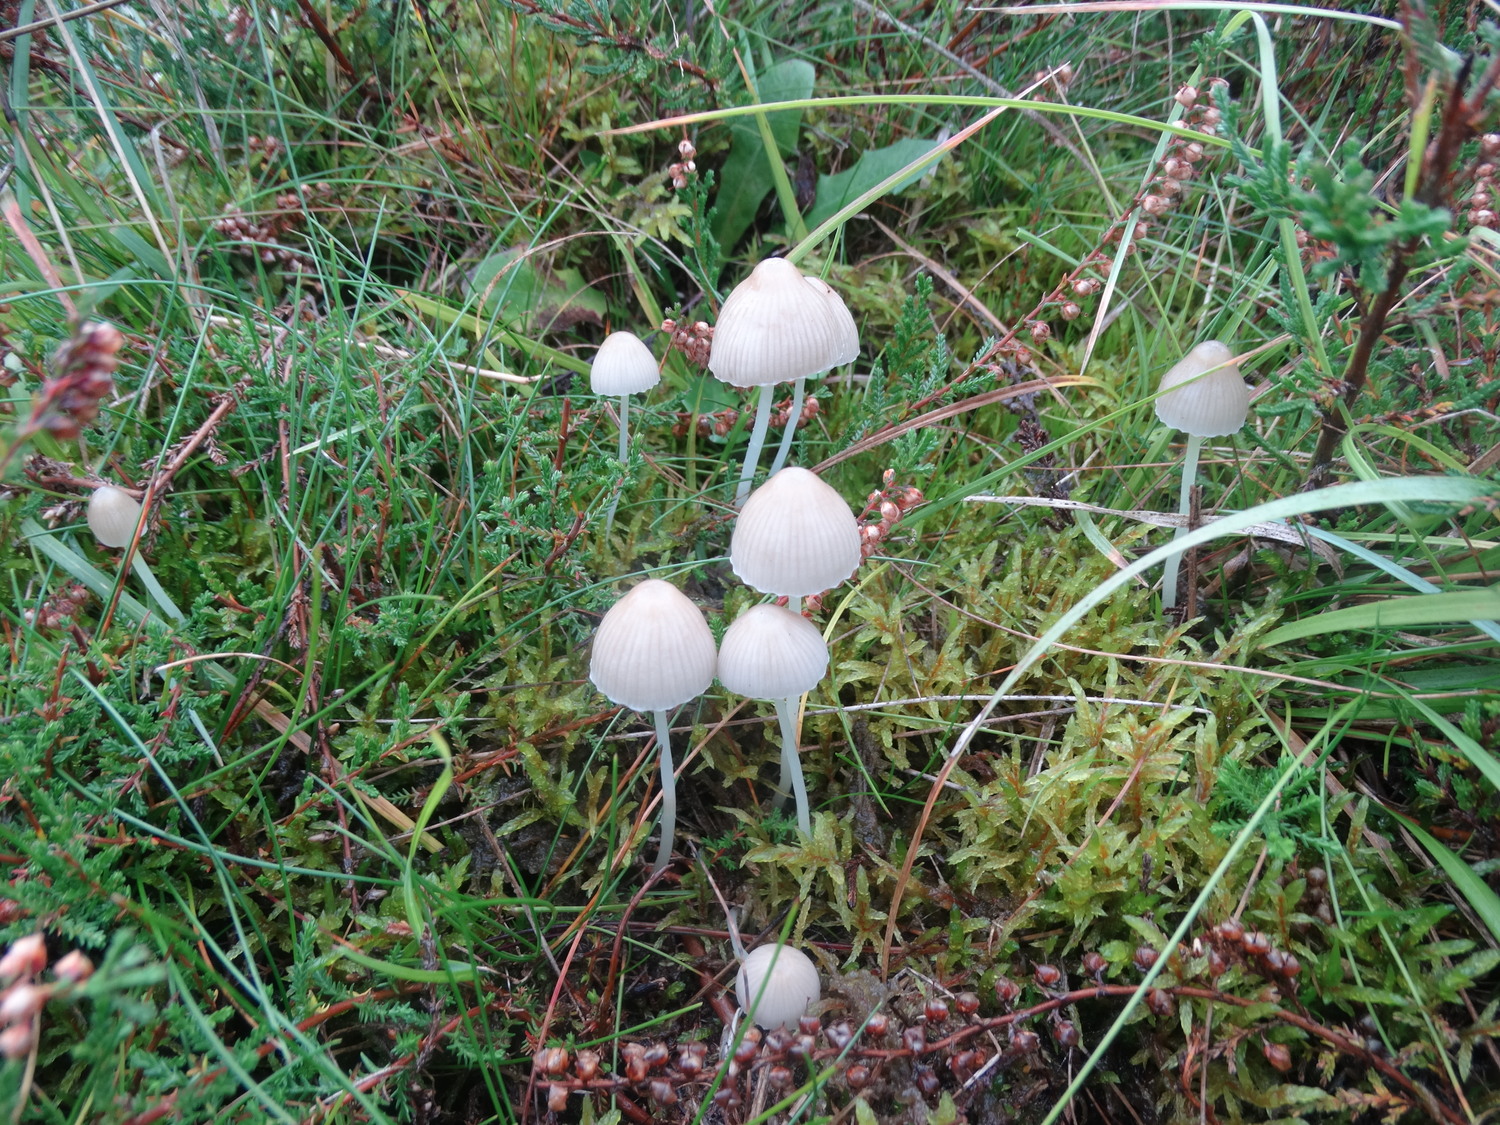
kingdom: Fungi
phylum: Basidiomycota
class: Agaricomycetes
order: Agaricales
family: Mycenaceae
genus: Mycena
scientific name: Mycena epipterygia
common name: gulstokket huesvamp
